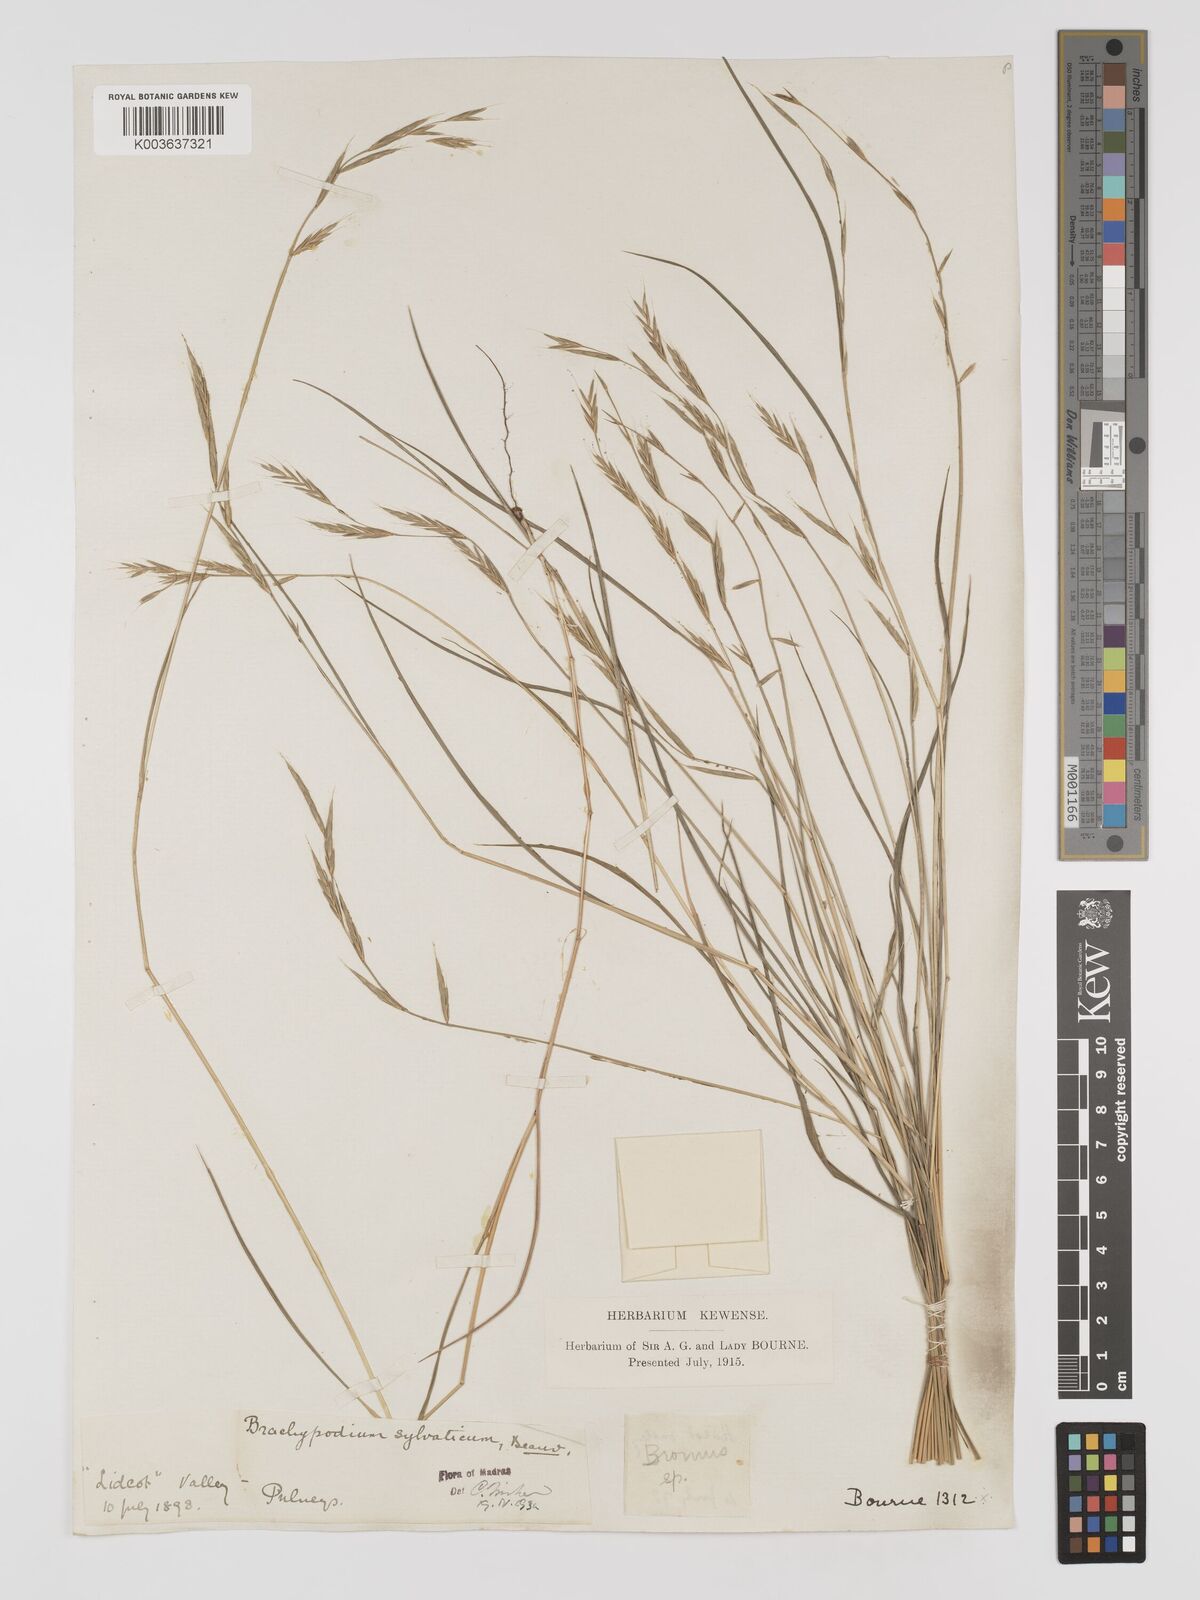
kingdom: Plantae
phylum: Tracheophyta
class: Liliopsida
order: Poales
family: Poaceae
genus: Brachypodium
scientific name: Brachypodium sylvaticum
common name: False-brome
